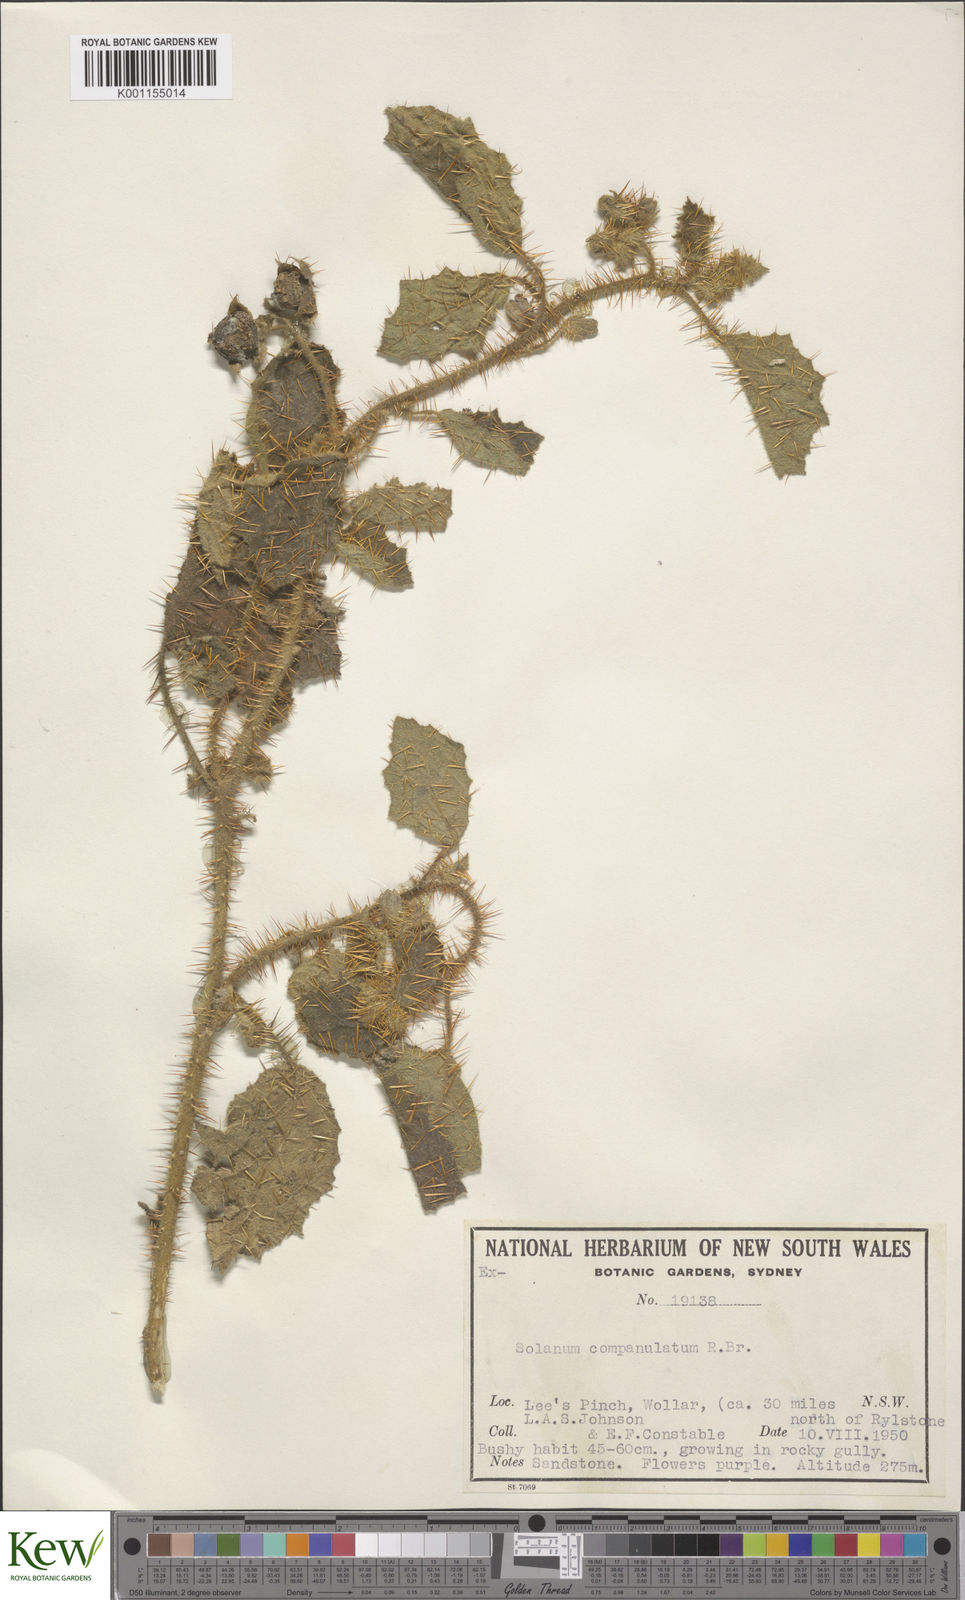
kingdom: Plantae
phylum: Tracheophyta
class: Magnoliopsida
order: Solanales
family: Solanaceae
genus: Solanum
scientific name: Solanum campanulatum
